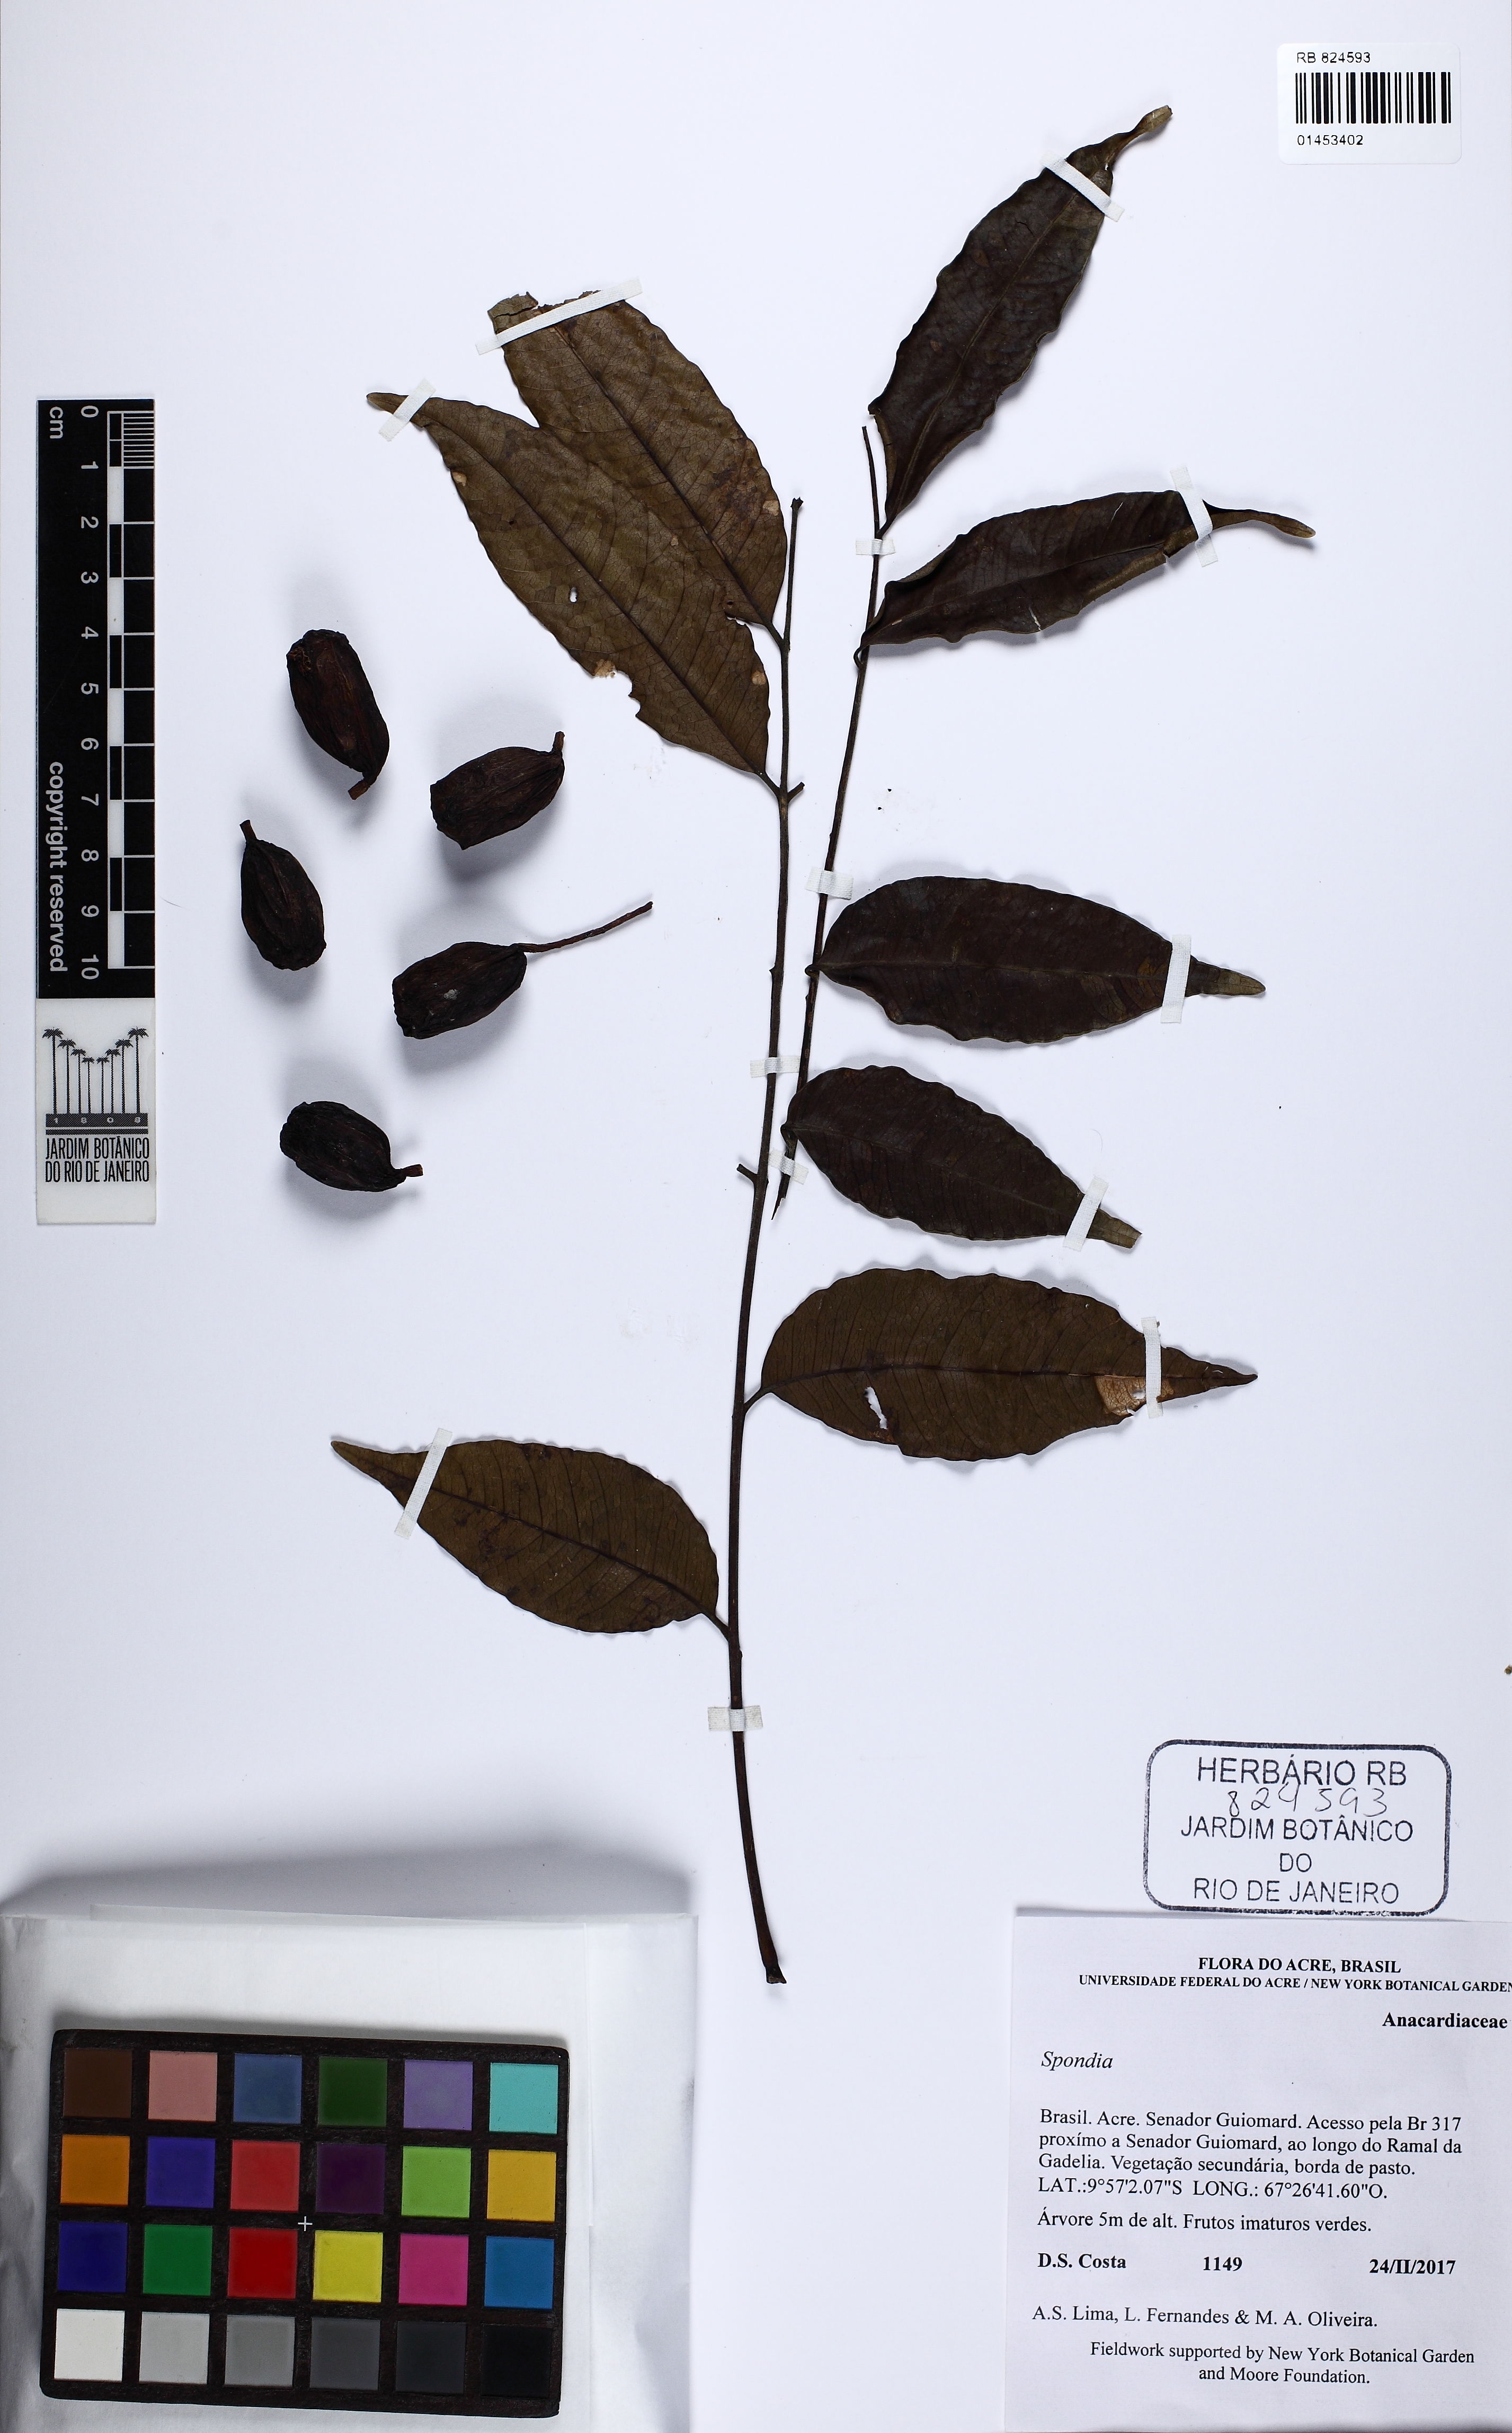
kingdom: Plantae
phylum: Tracheophyta
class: Magnoliopsida
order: Sapindales
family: Anacardiaceae
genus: Spondias
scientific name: Spondias
